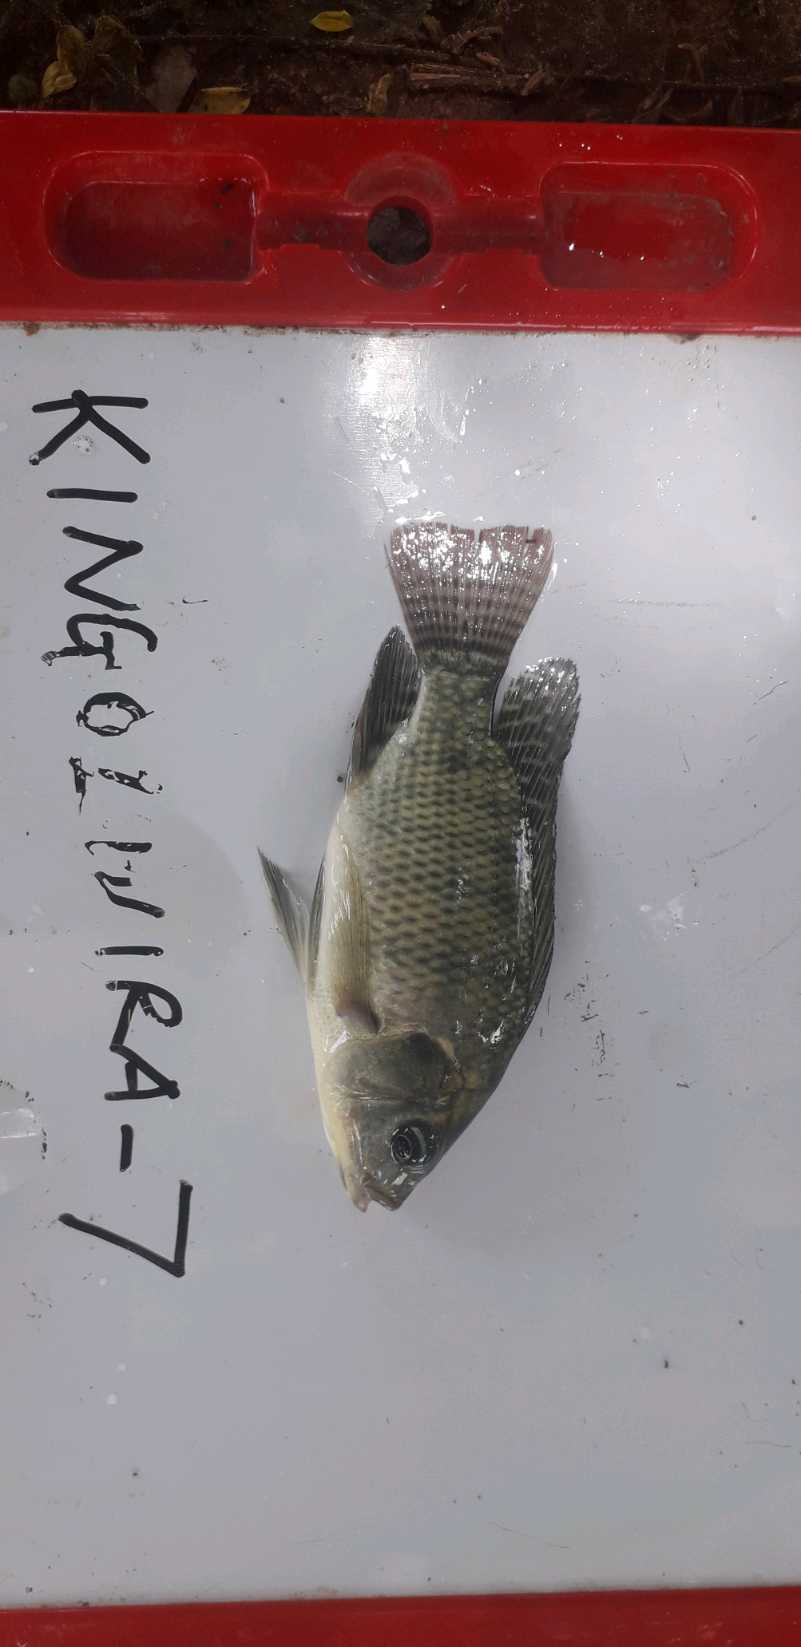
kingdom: Animalia
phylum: Chordata
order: Perciformes
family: Cichlidae
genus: Oreochromis
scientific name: Oreochromis niloticus
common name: Nile tilapia
